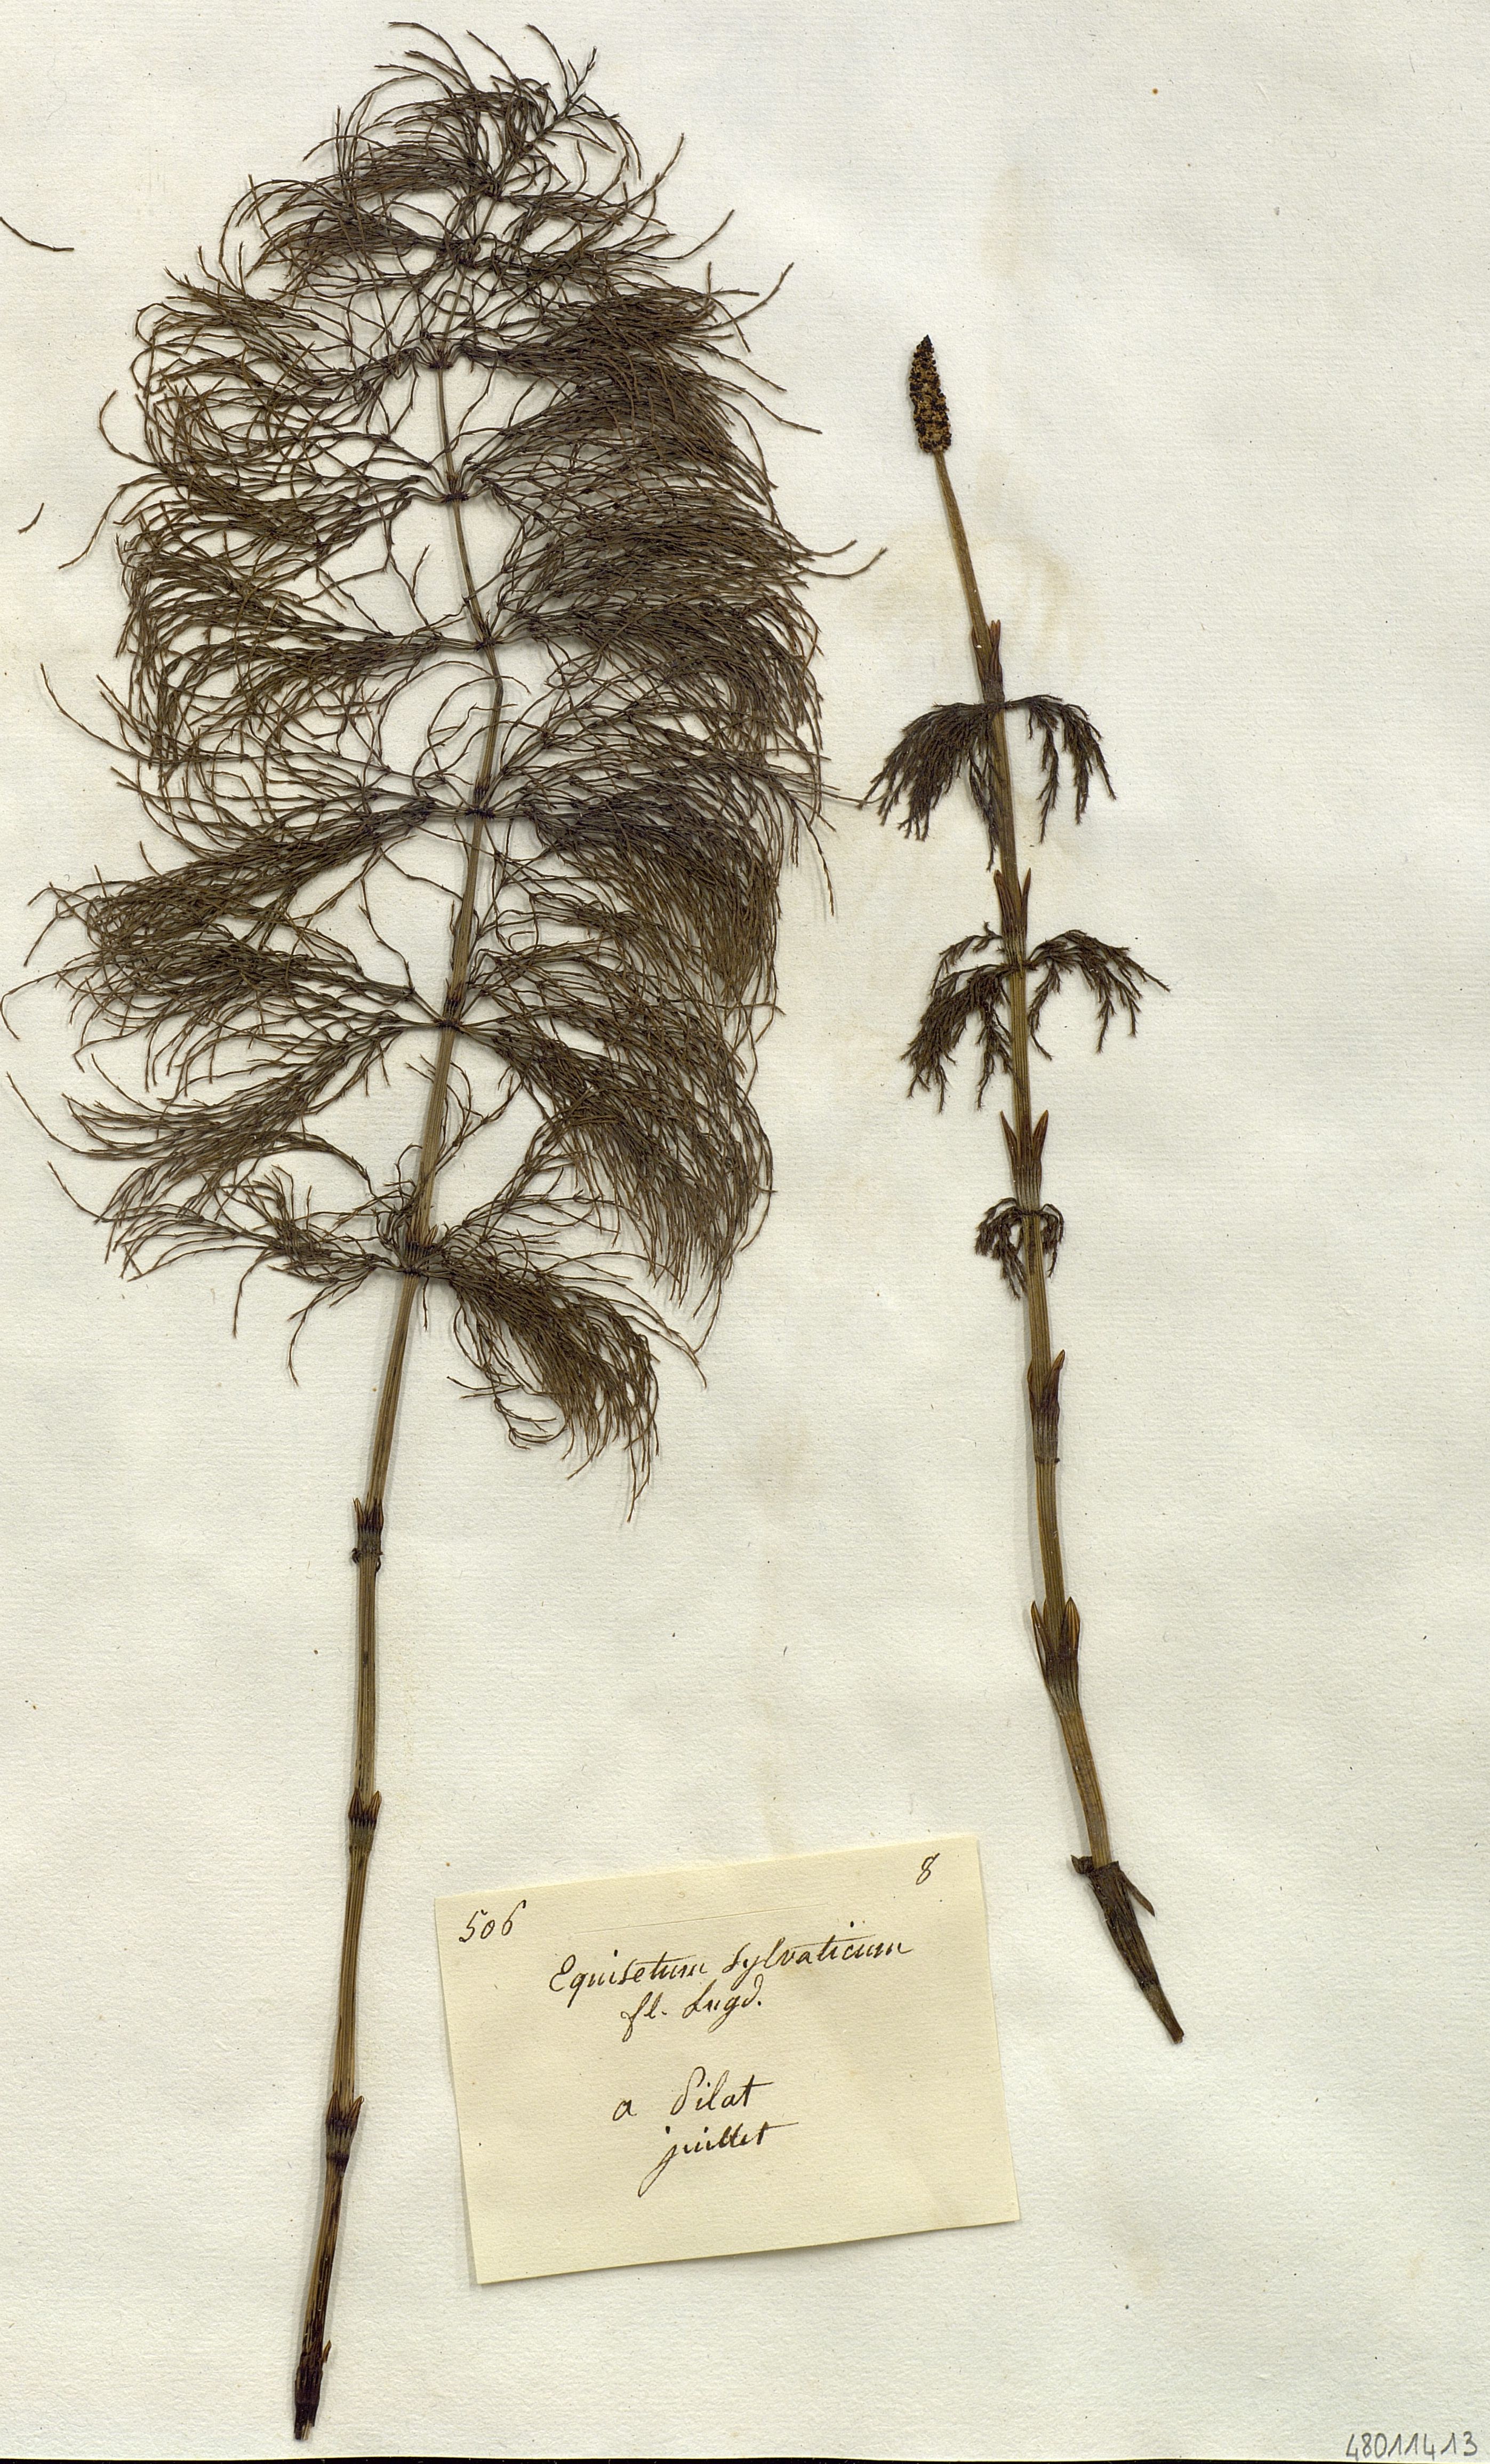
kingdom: Plantae
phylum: Tracheophyta
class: Polypodiopsida
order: Equisetales
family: Equisetaceae
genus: Equisetum
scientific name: Equisetum sylvaticum
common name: Wood horsetail
